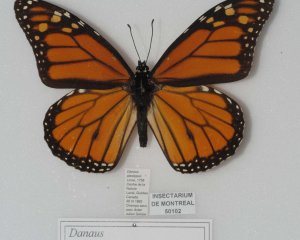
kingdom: Animalia
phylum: Arthropoda
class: Insecta
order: Lepidoptera
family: Nymphalidae
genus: Danaus
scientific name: Danaus plexippus
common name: Monarch
